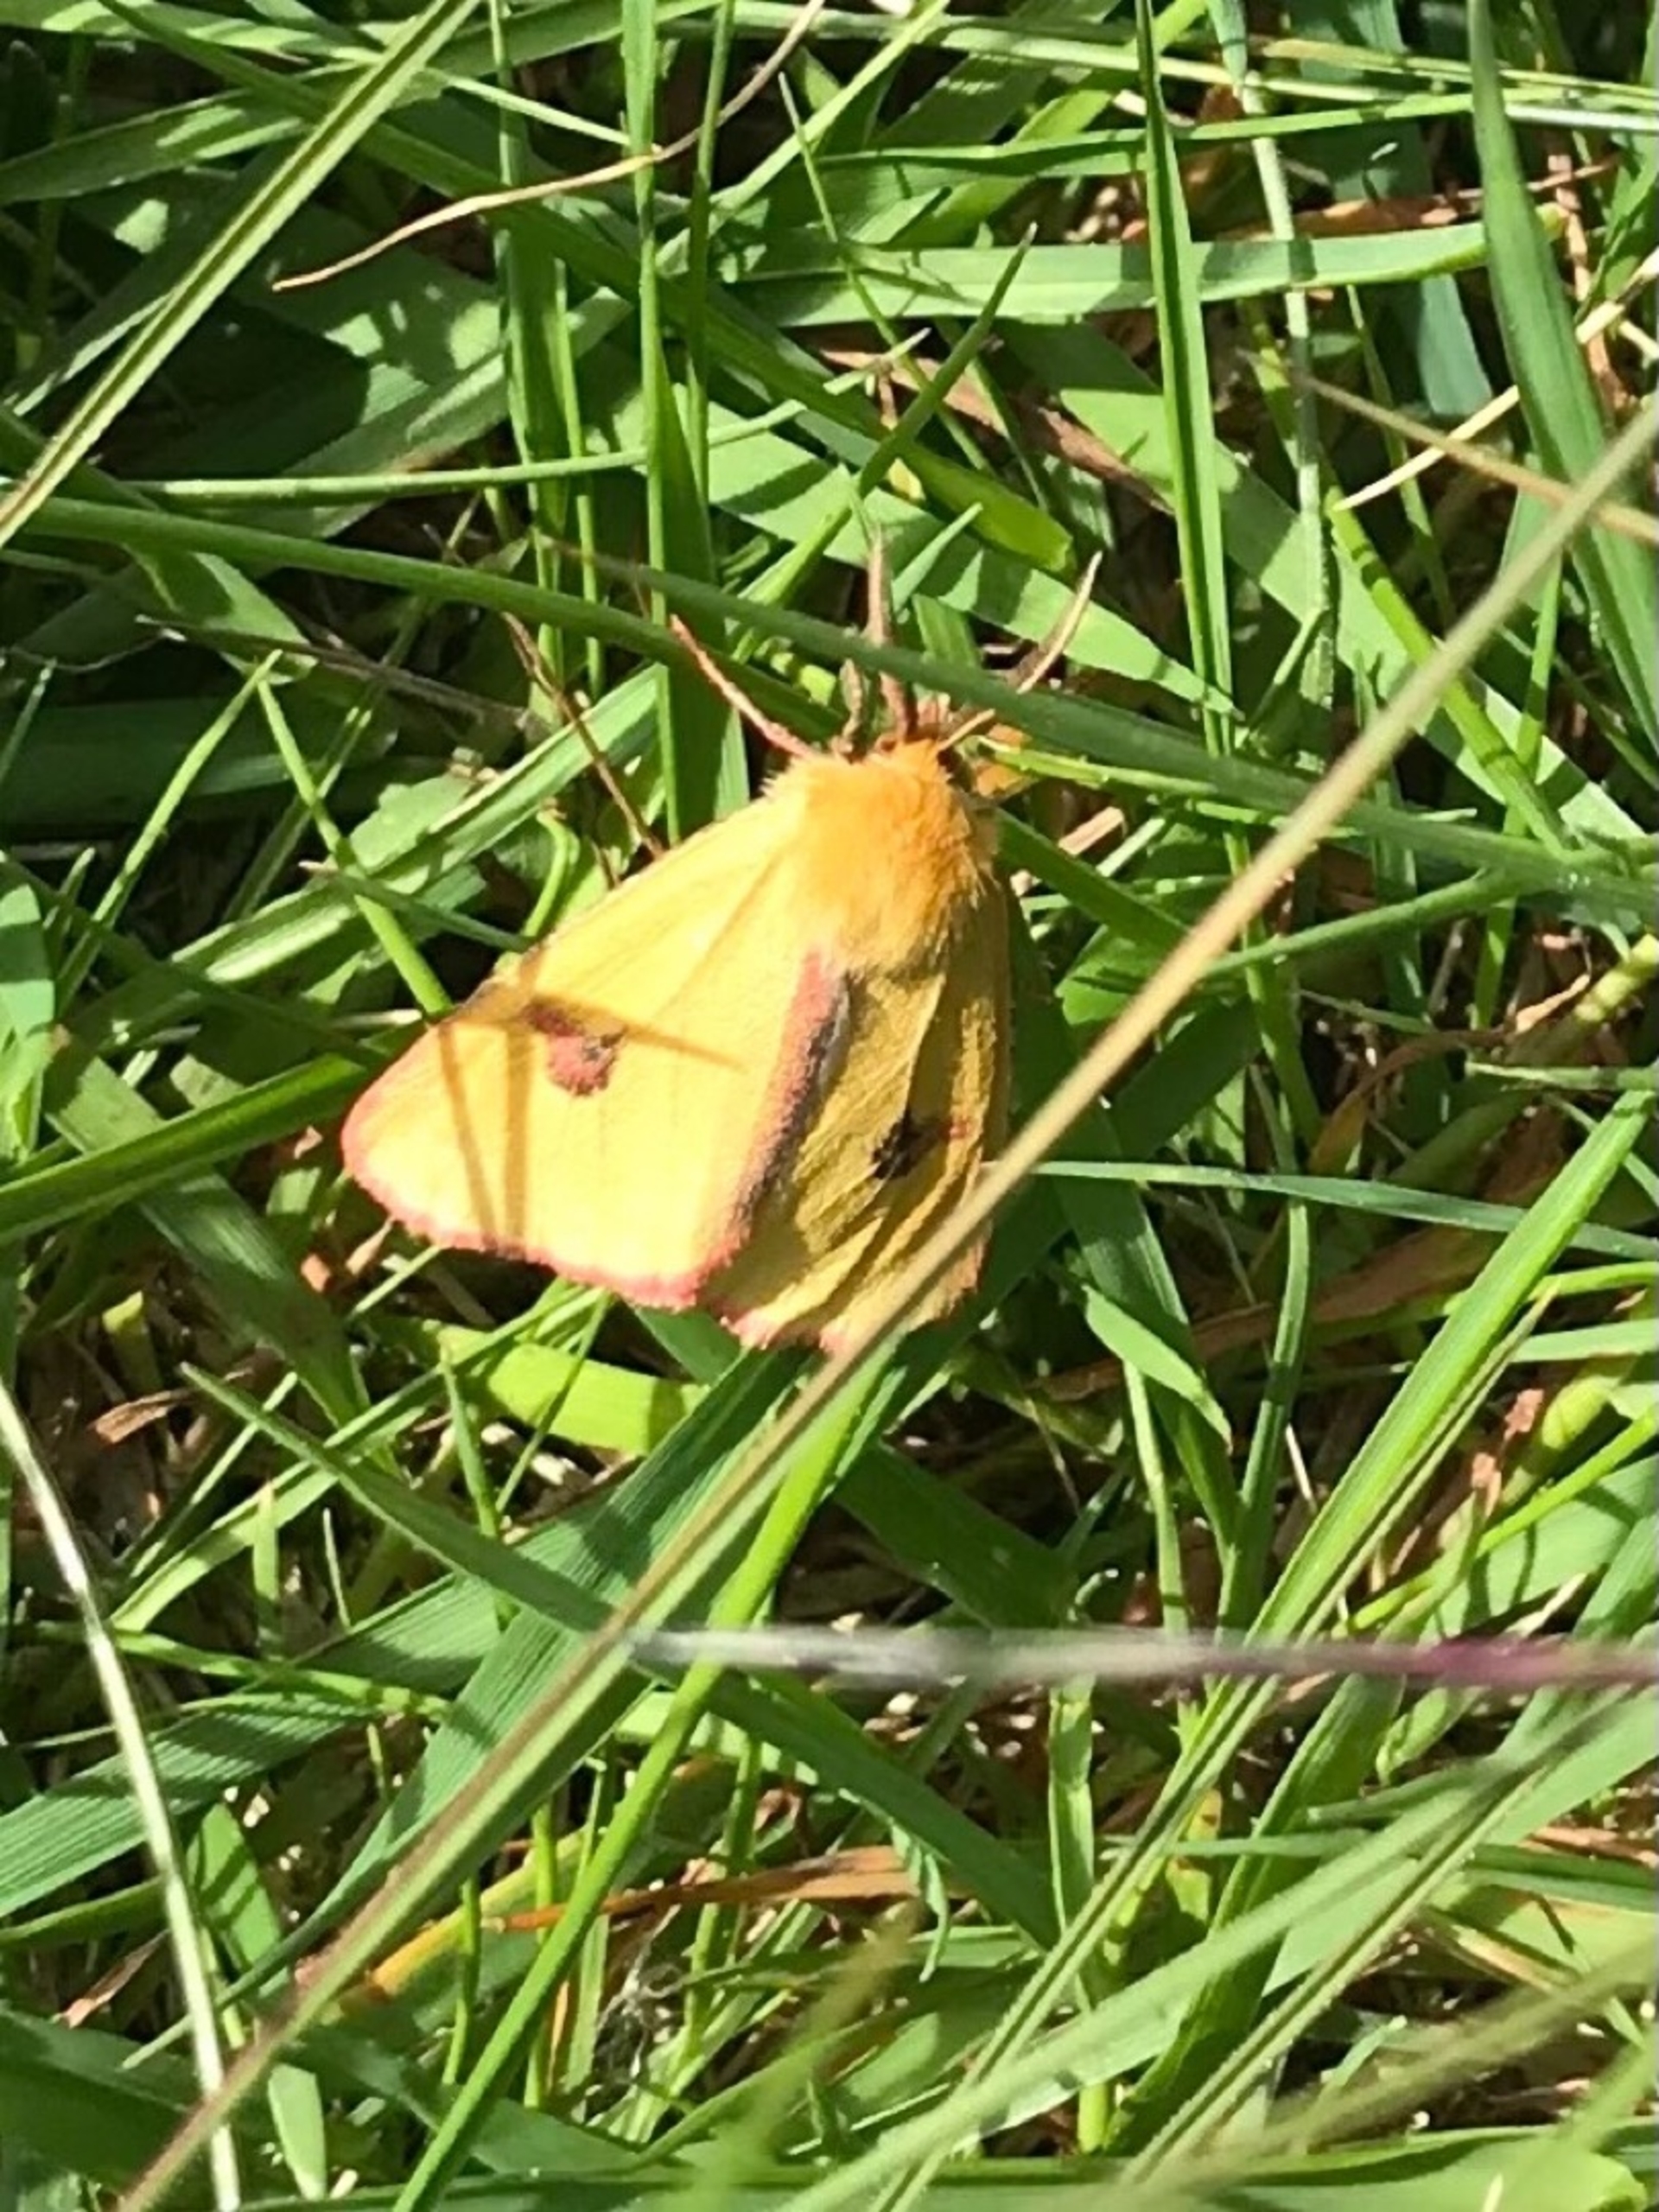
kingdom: Animalia
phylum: Arthropoda
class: Insecta
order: Lepidoptera
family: Erebidae
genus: Diacrisia
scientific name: Diacrisia sannio
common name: Rødfrynset bjørn
